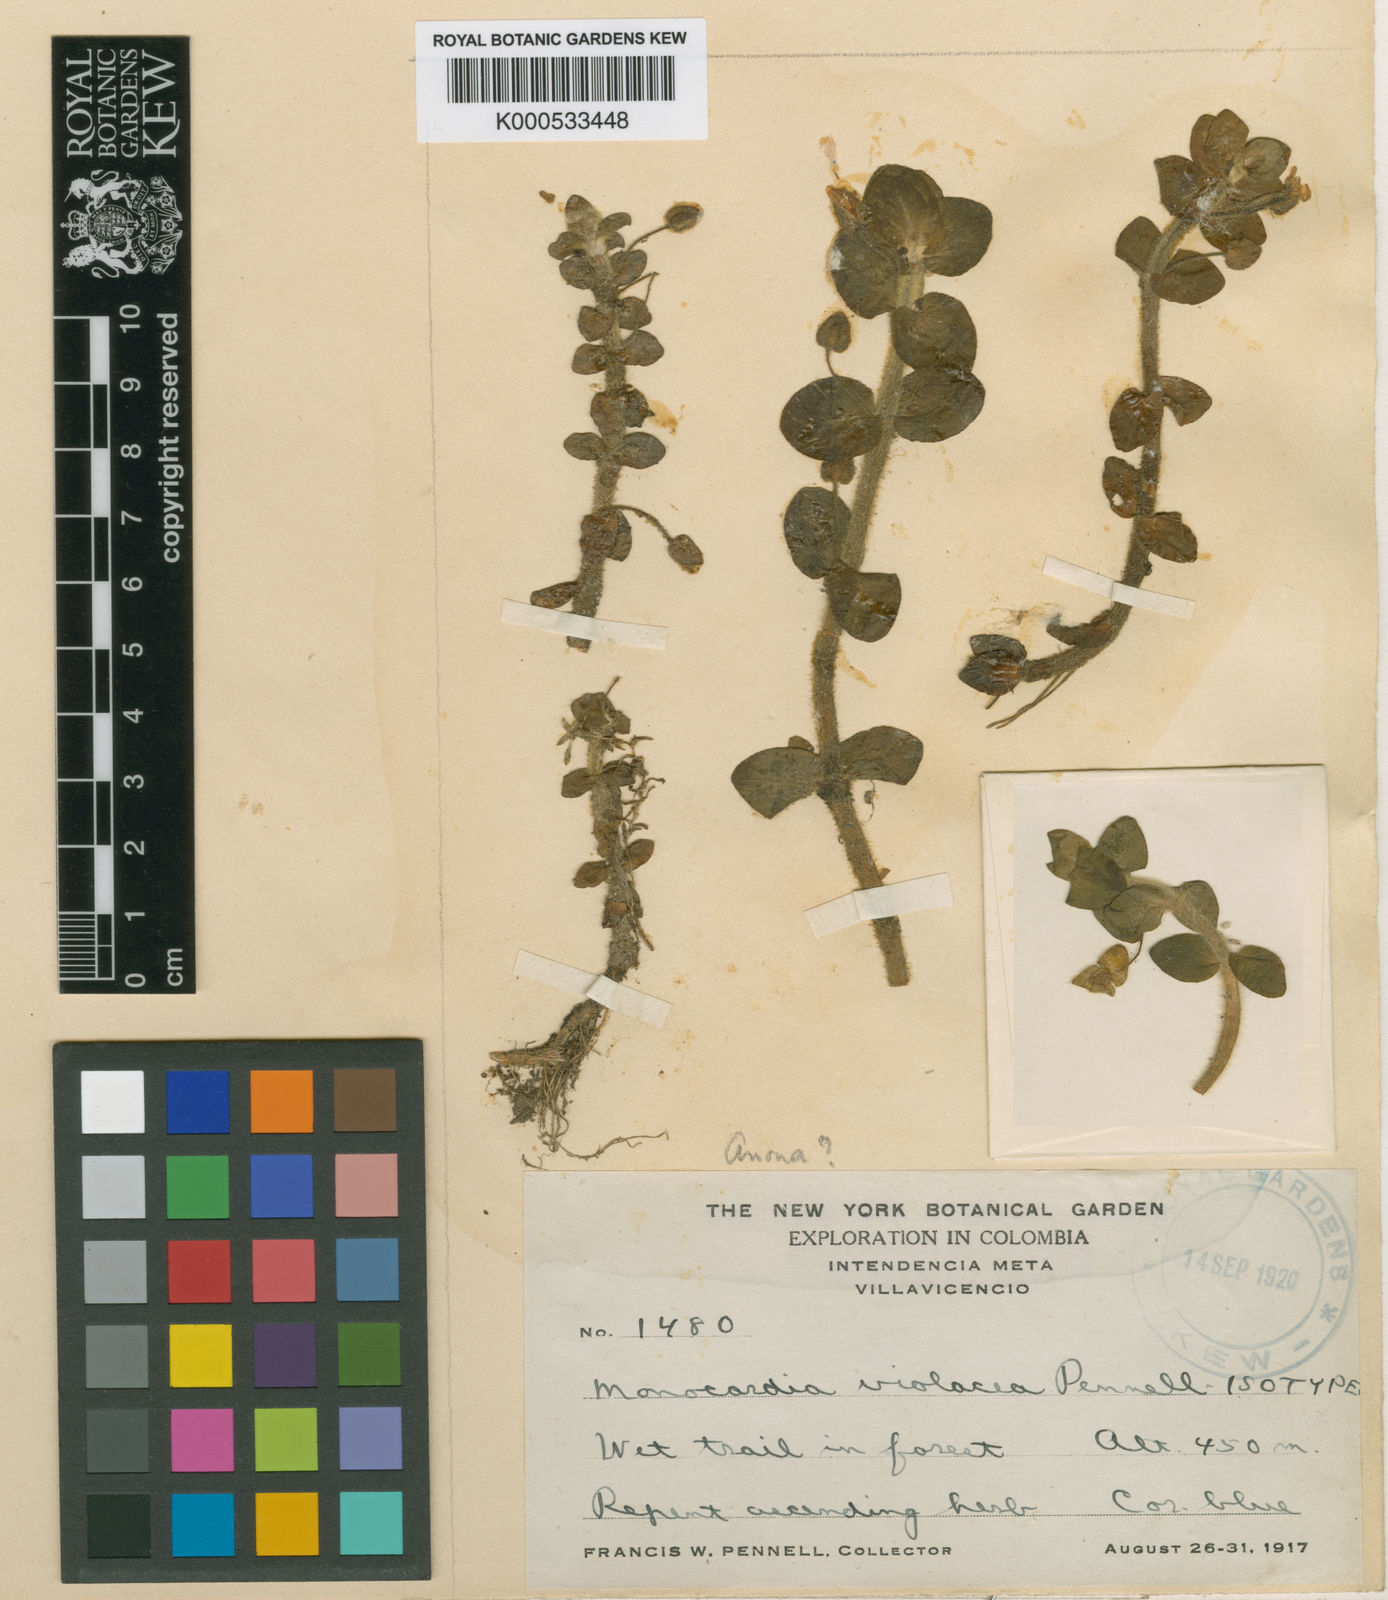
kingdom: Plantae
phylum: Tracheophyta
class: Magnoliopsida
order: Lamiales
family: Plantaginaceae
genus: Bacopa
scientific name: Bacopa salzmannii
